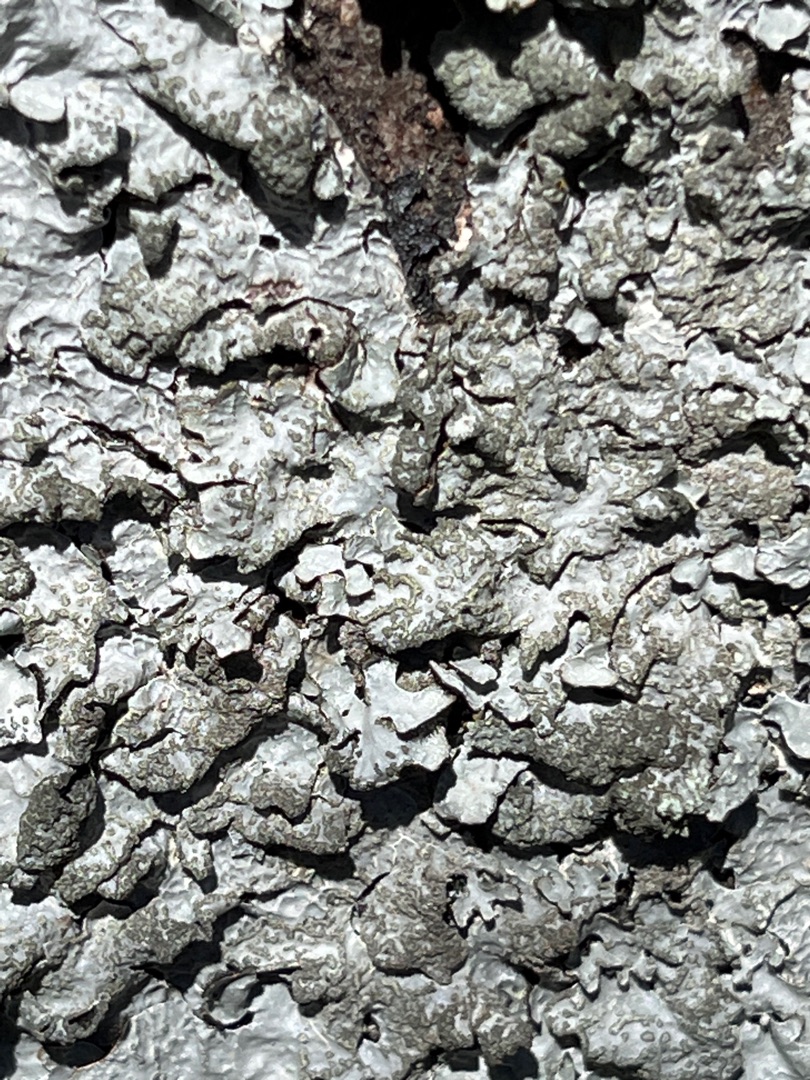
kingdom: Fungi
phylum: Ascomycota
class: Lecanoromycetes
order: Lecanorales
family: Parmeliaceae
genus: Parmelia
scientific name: Parmelia sulcata
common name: Rynket skållav
